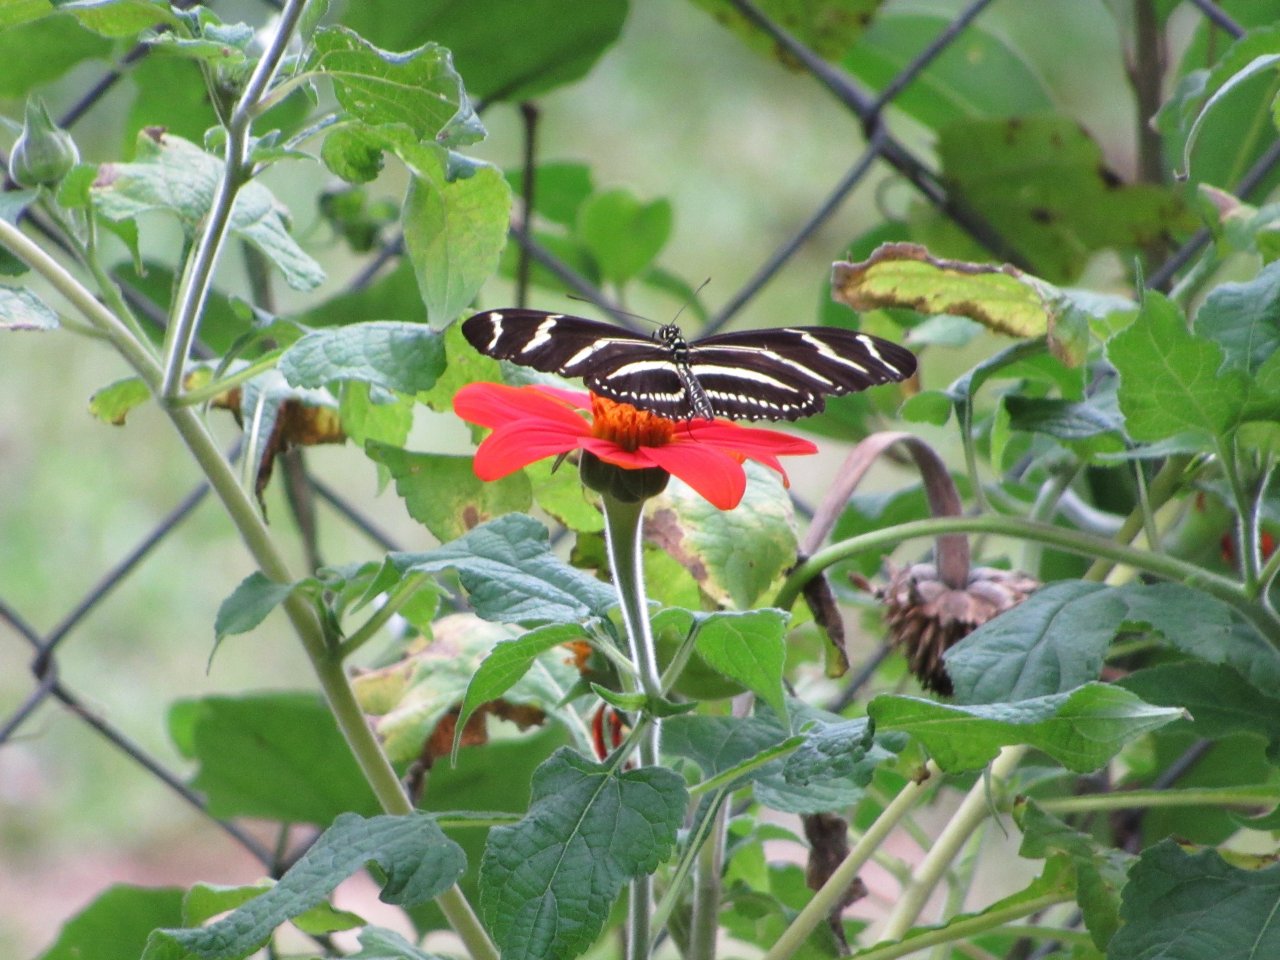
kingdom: Animalia
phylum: Arthropoda
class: Insecta
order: Lepidoptera
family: Nymphalidae
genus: Heliconius
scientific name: Heliconius charithonia
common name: Zebra Longwing
